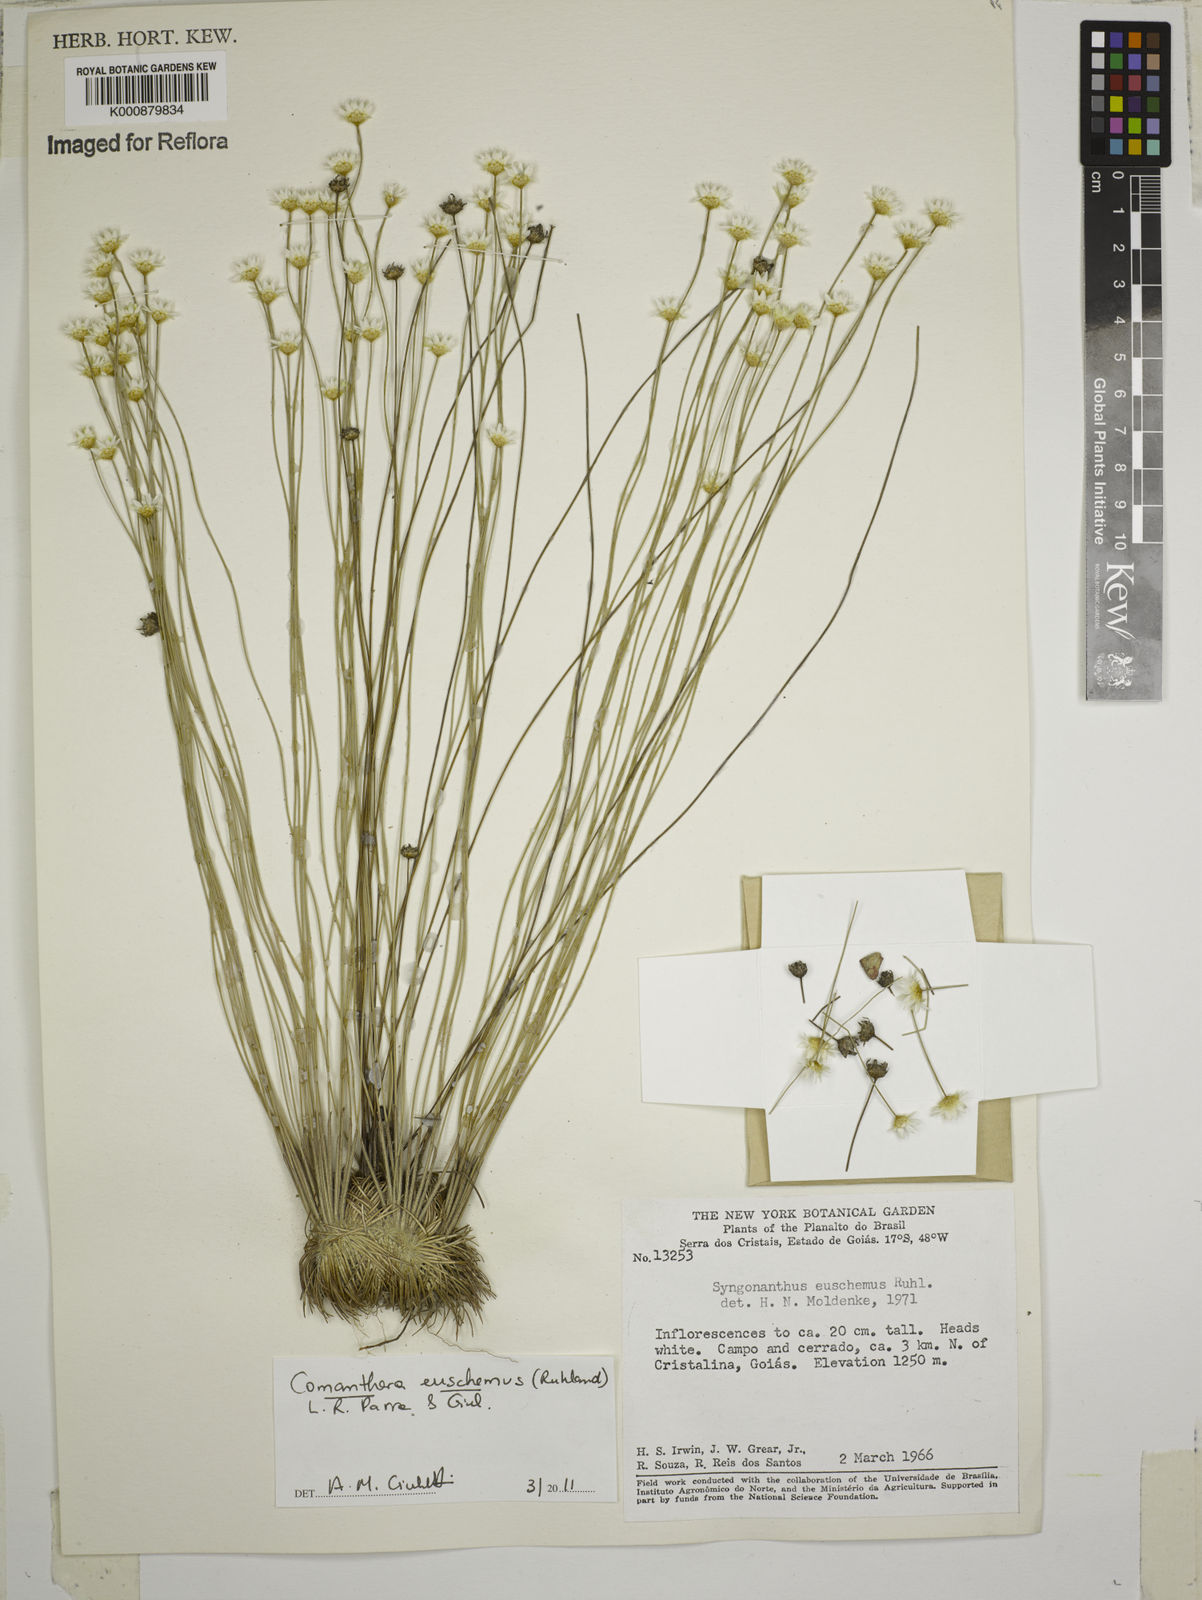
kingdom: Plantae
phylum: Tracheophyta
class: Liliopsida
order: Poales
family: Eriocaulaceae
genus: Comanthera
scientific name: Comanthera euschemus
